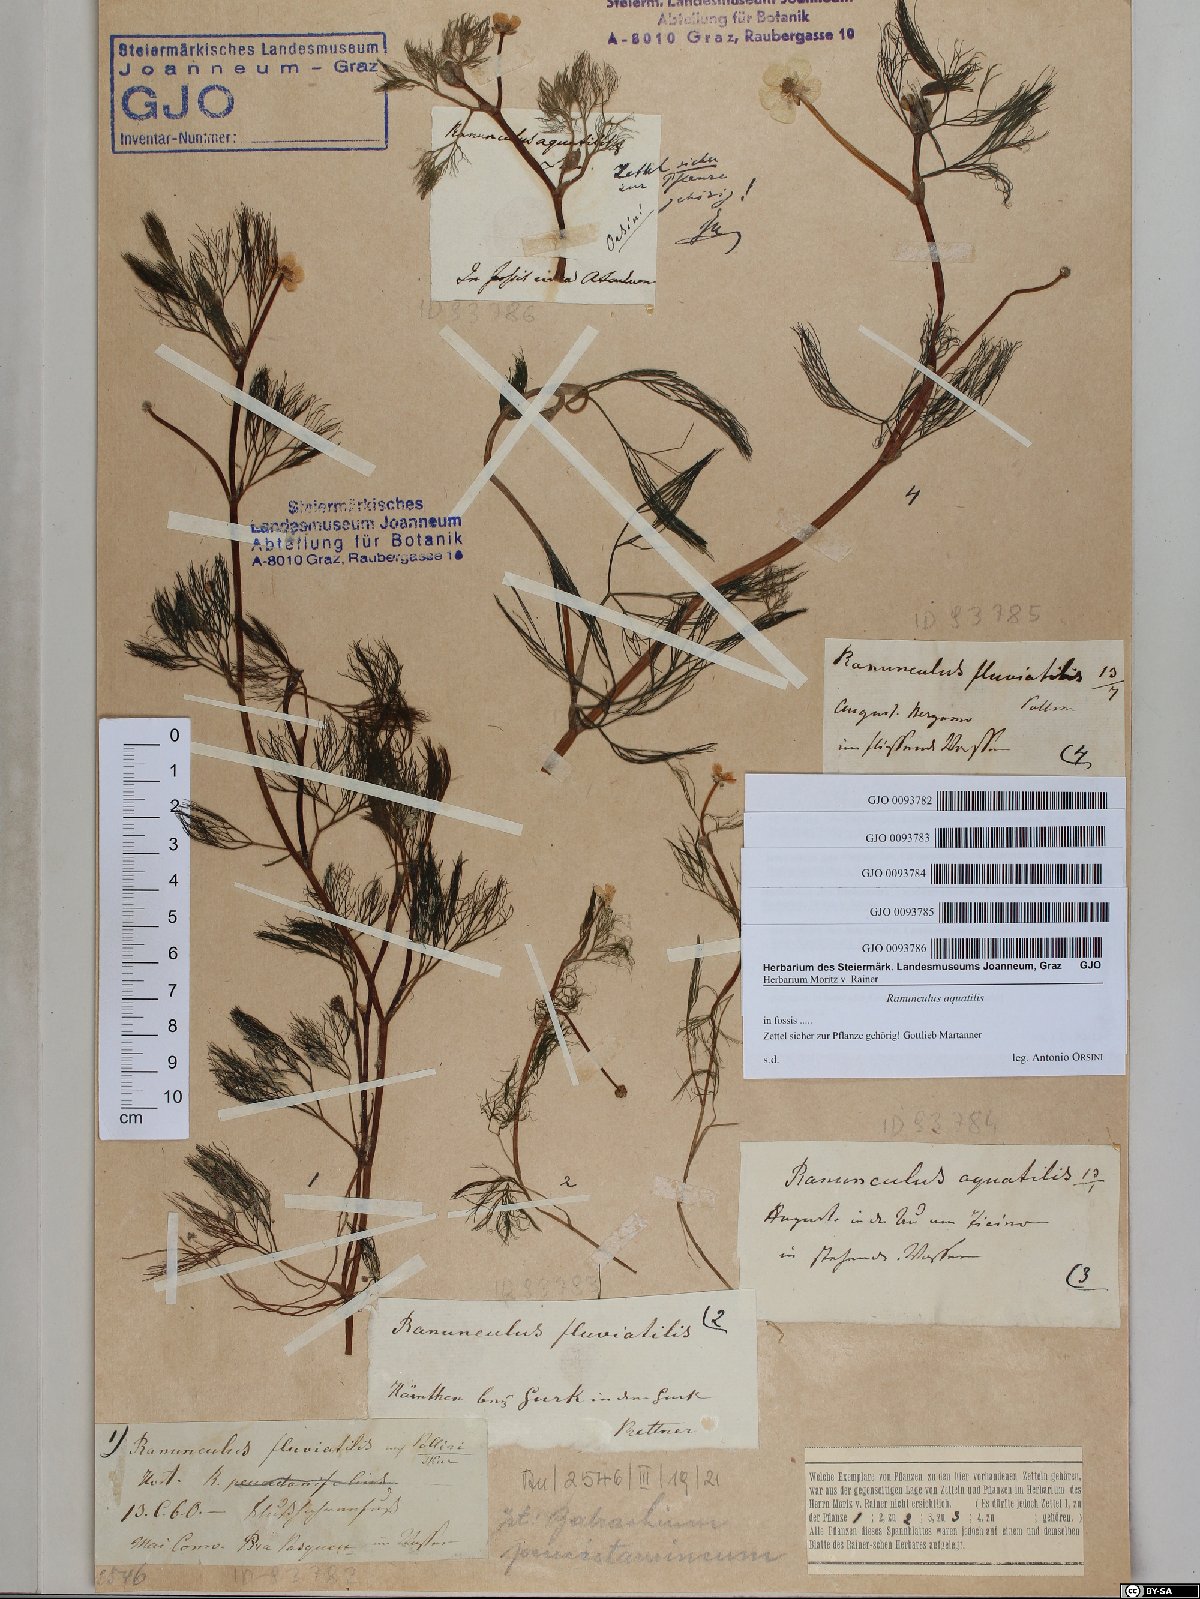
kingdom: Plantae
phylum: Tracheophyta
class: Magnoliopsida
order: Ranunculales
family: Ranunculaceae
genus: Ranunculus
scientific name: Ranunculus aquatilis
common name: Common water-crowfoot
